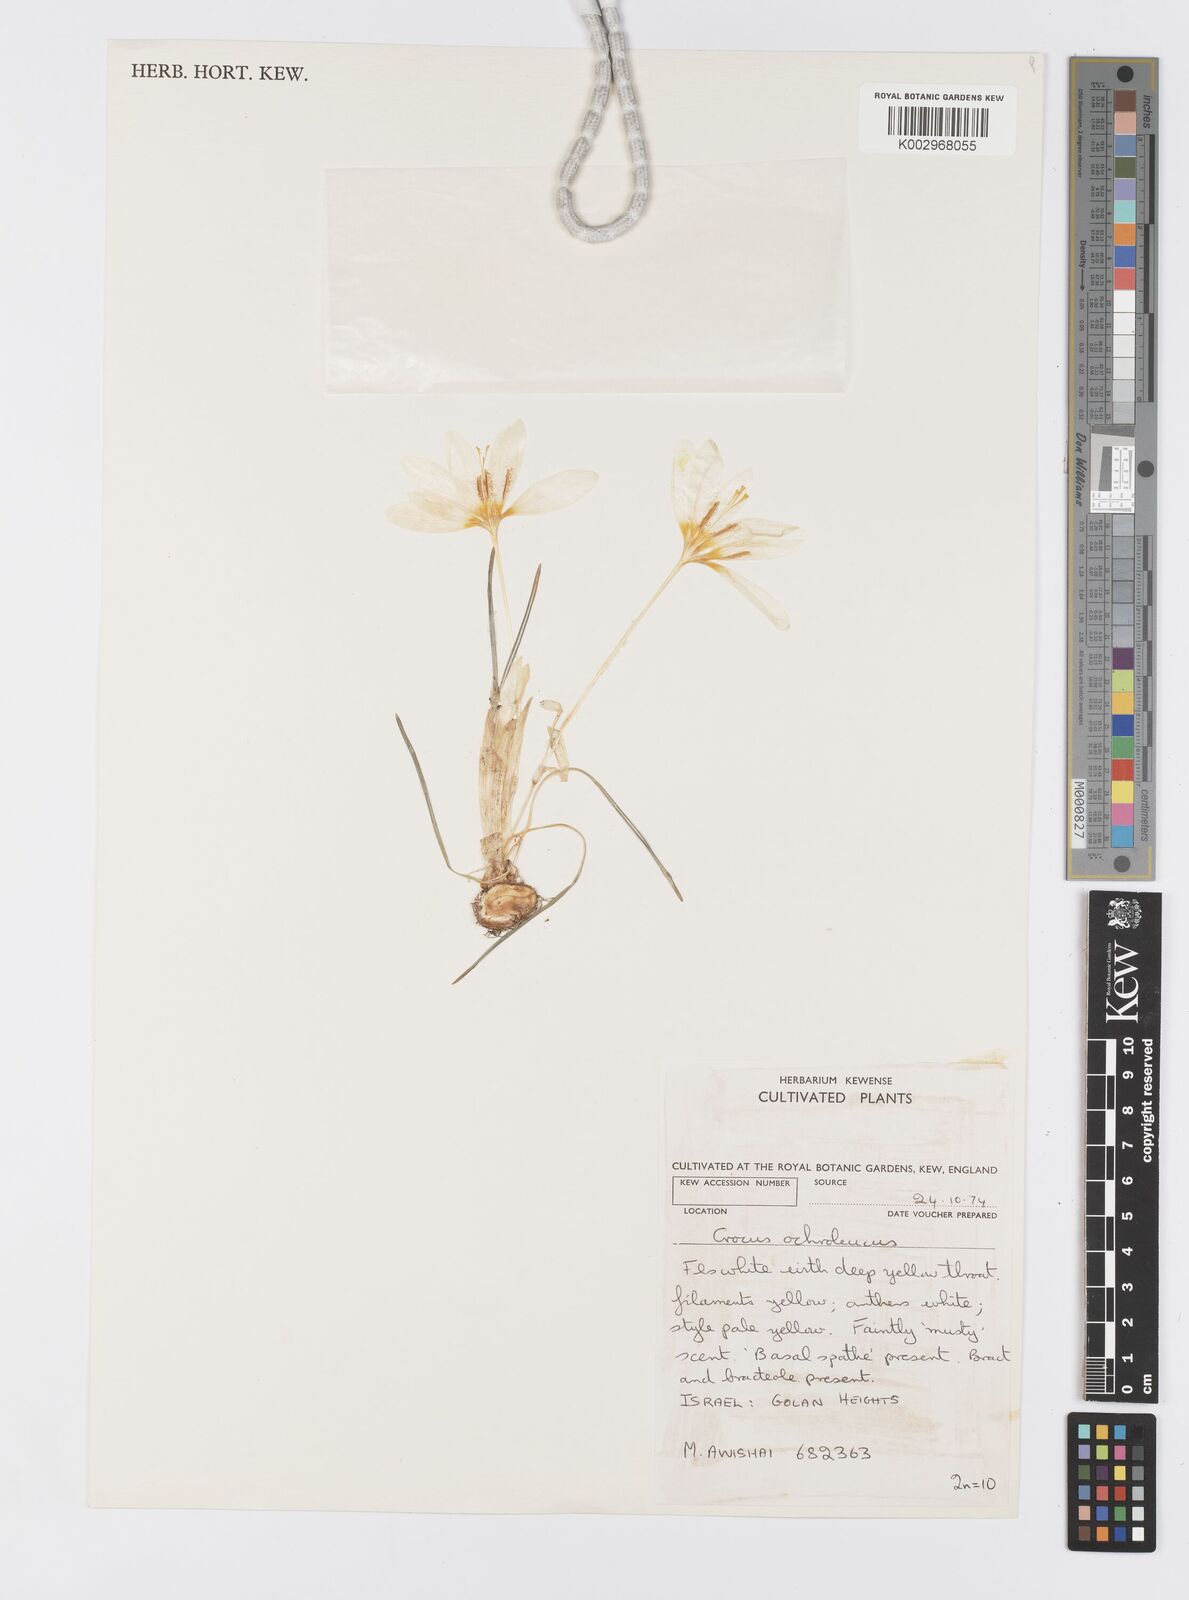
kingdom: Plantae
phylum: Tracheophyta
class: Liliopsida
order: Asparagales
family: Iridaceae
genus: Crocus
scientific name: Crocus ochroleucus
